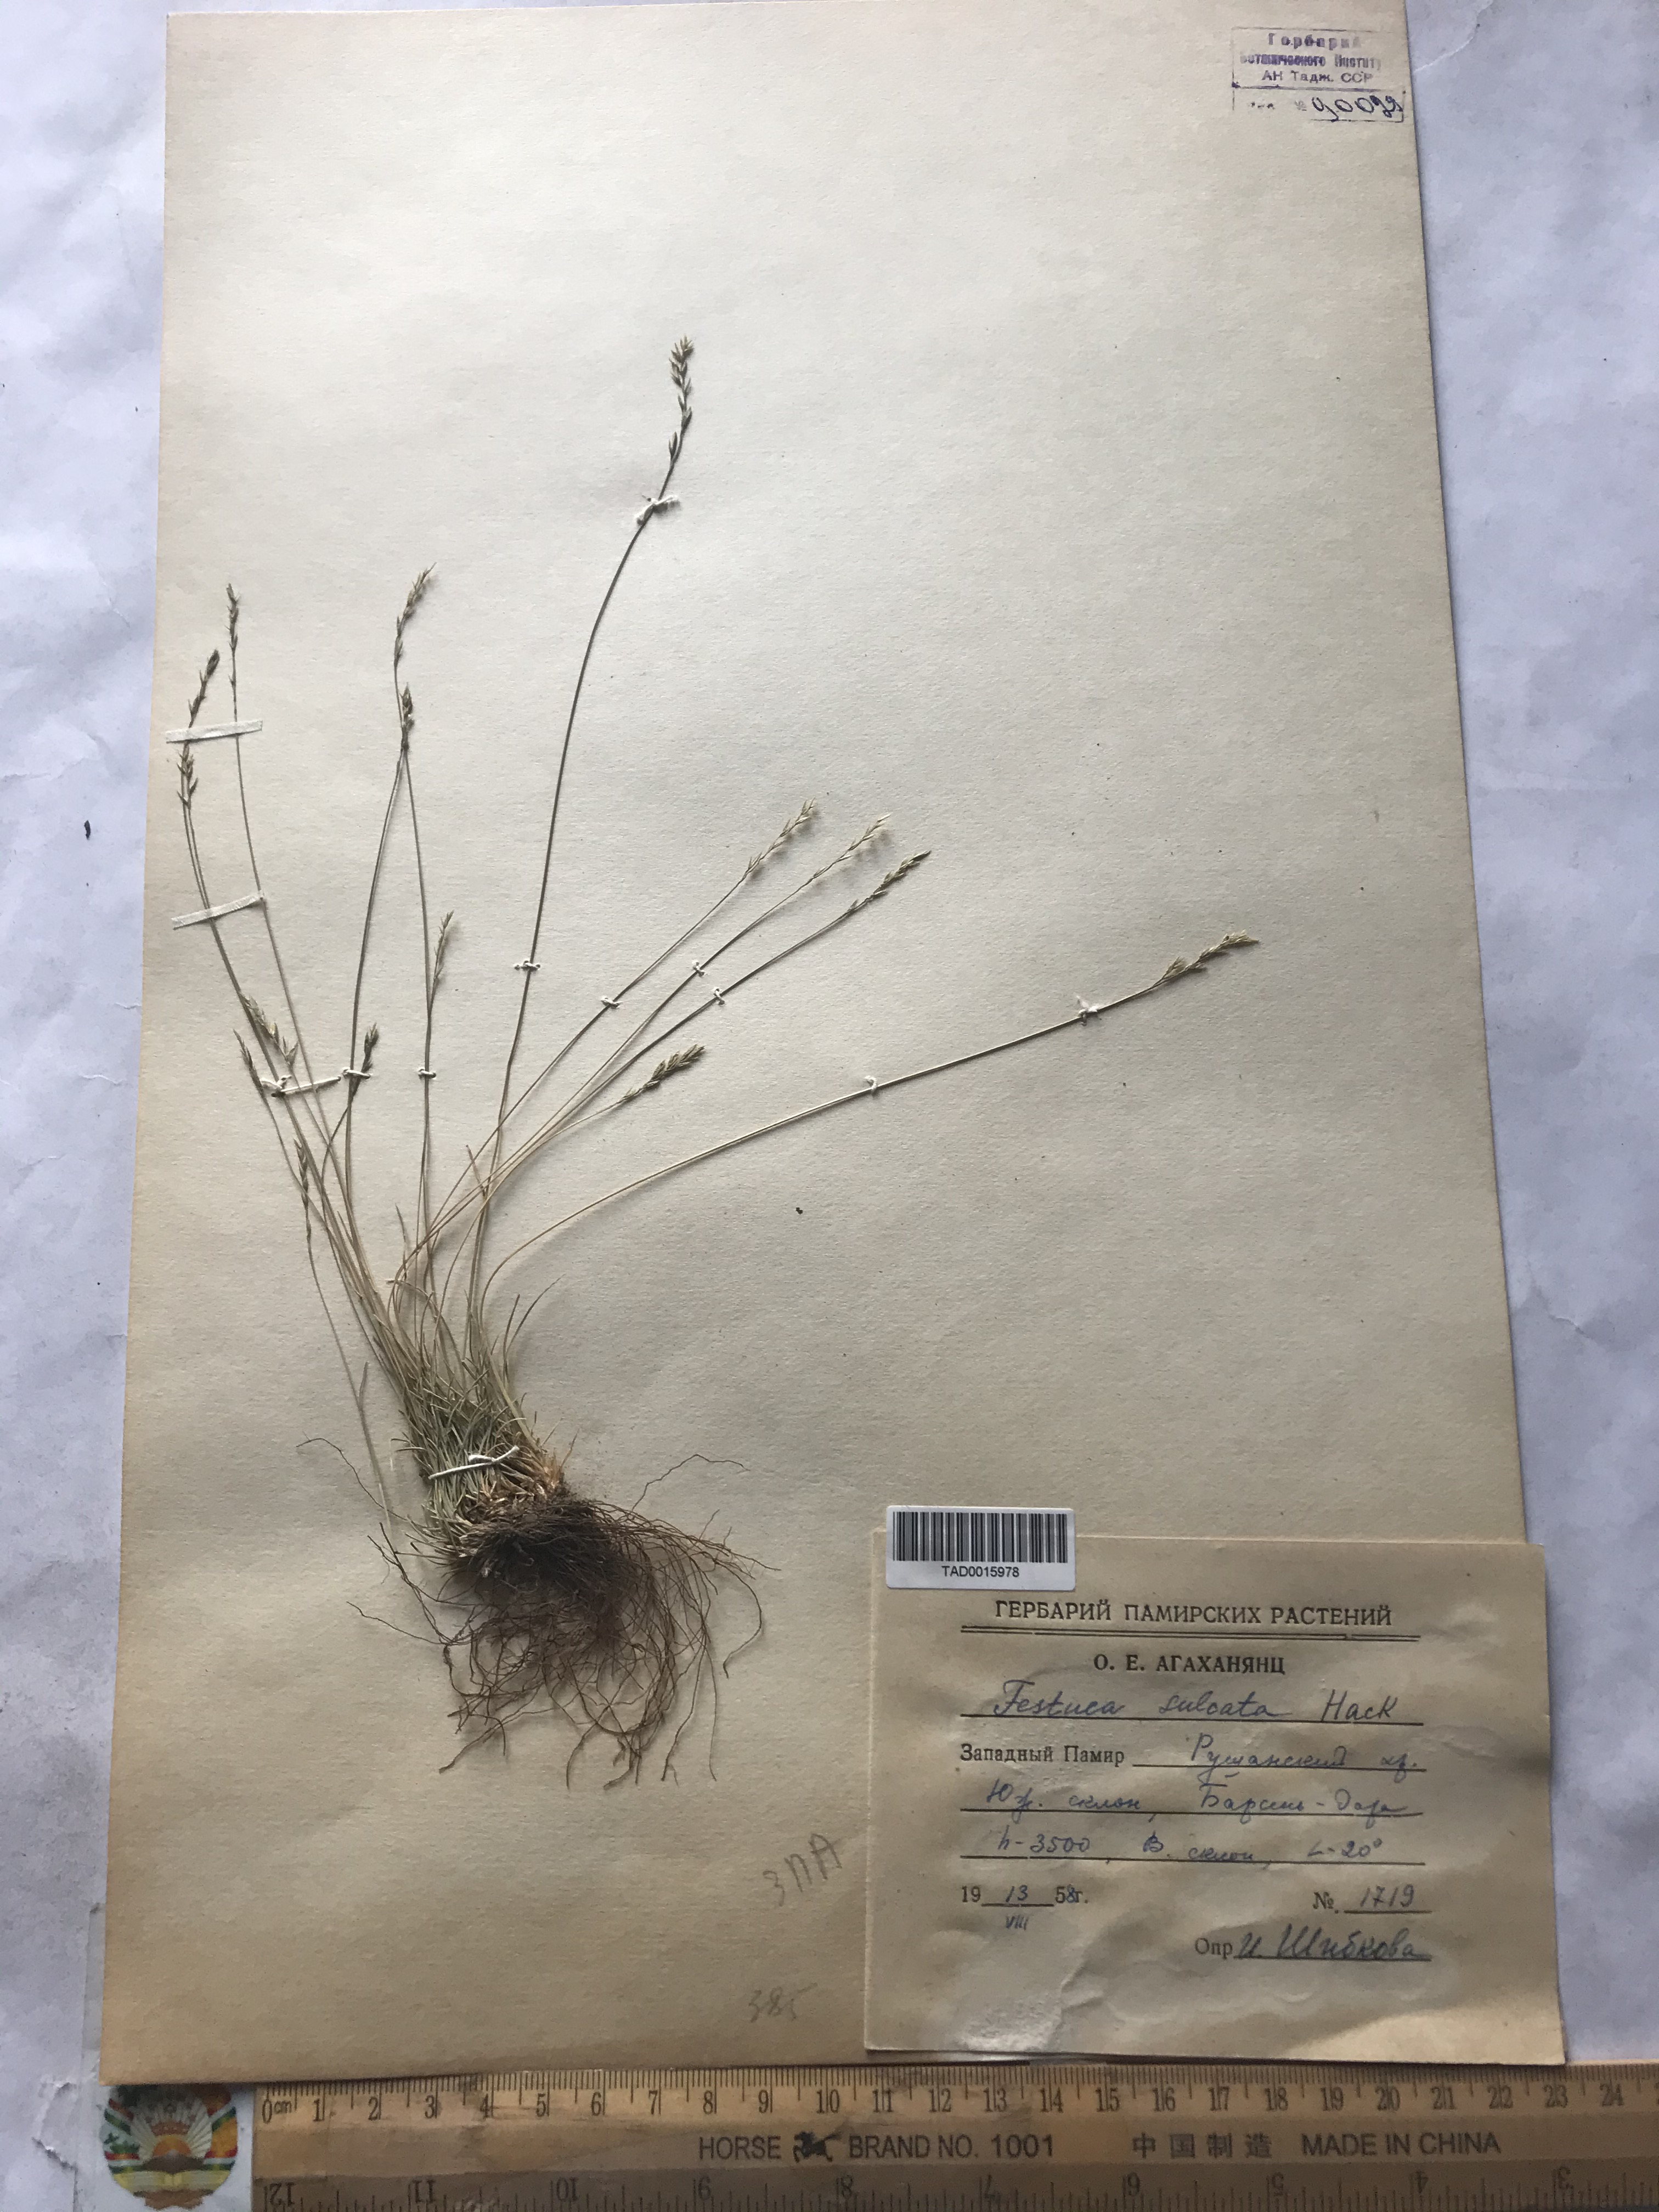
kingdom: Plantae
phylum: Tracheophyta
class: Liliopsida
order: Poales
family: Poaceae
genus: Festuca
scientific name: Festuca sulcata
